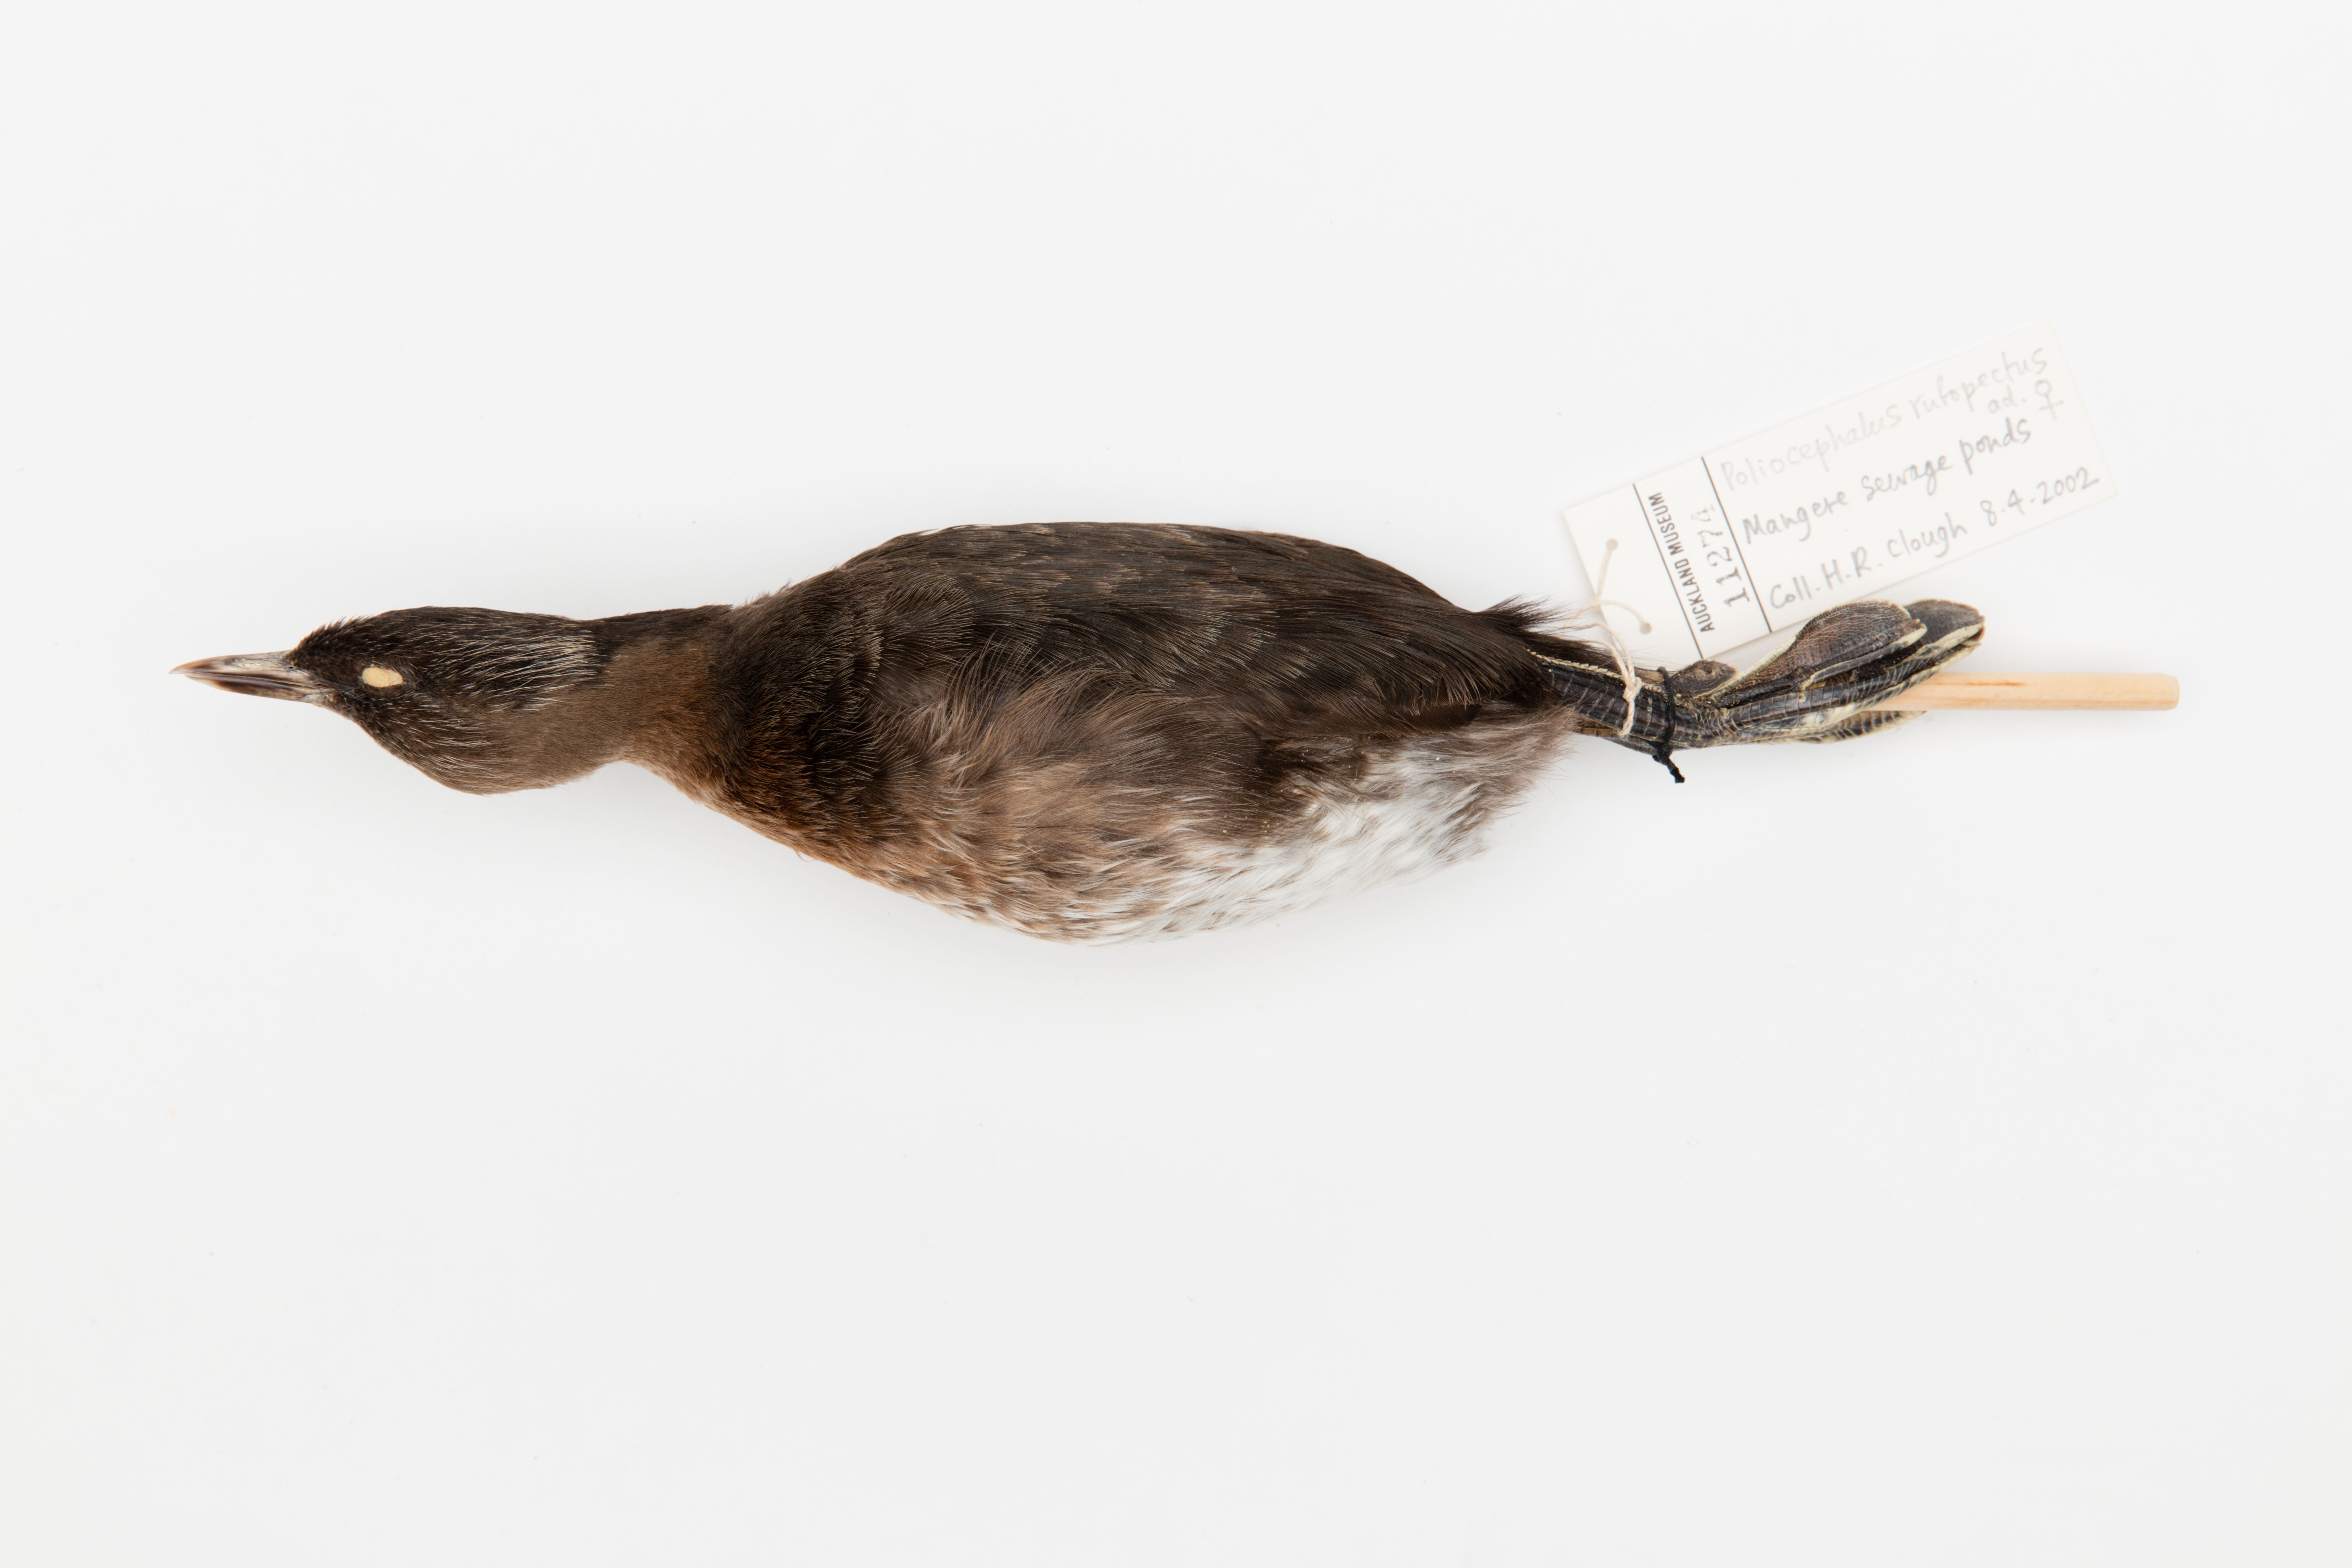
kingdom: Animalia
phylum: Chordata
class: Aves
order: Podicipediformes
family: Podicipedidae
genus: Poliocephalus
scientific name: Poliocephalus rufopectus
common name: New zealand grebe
